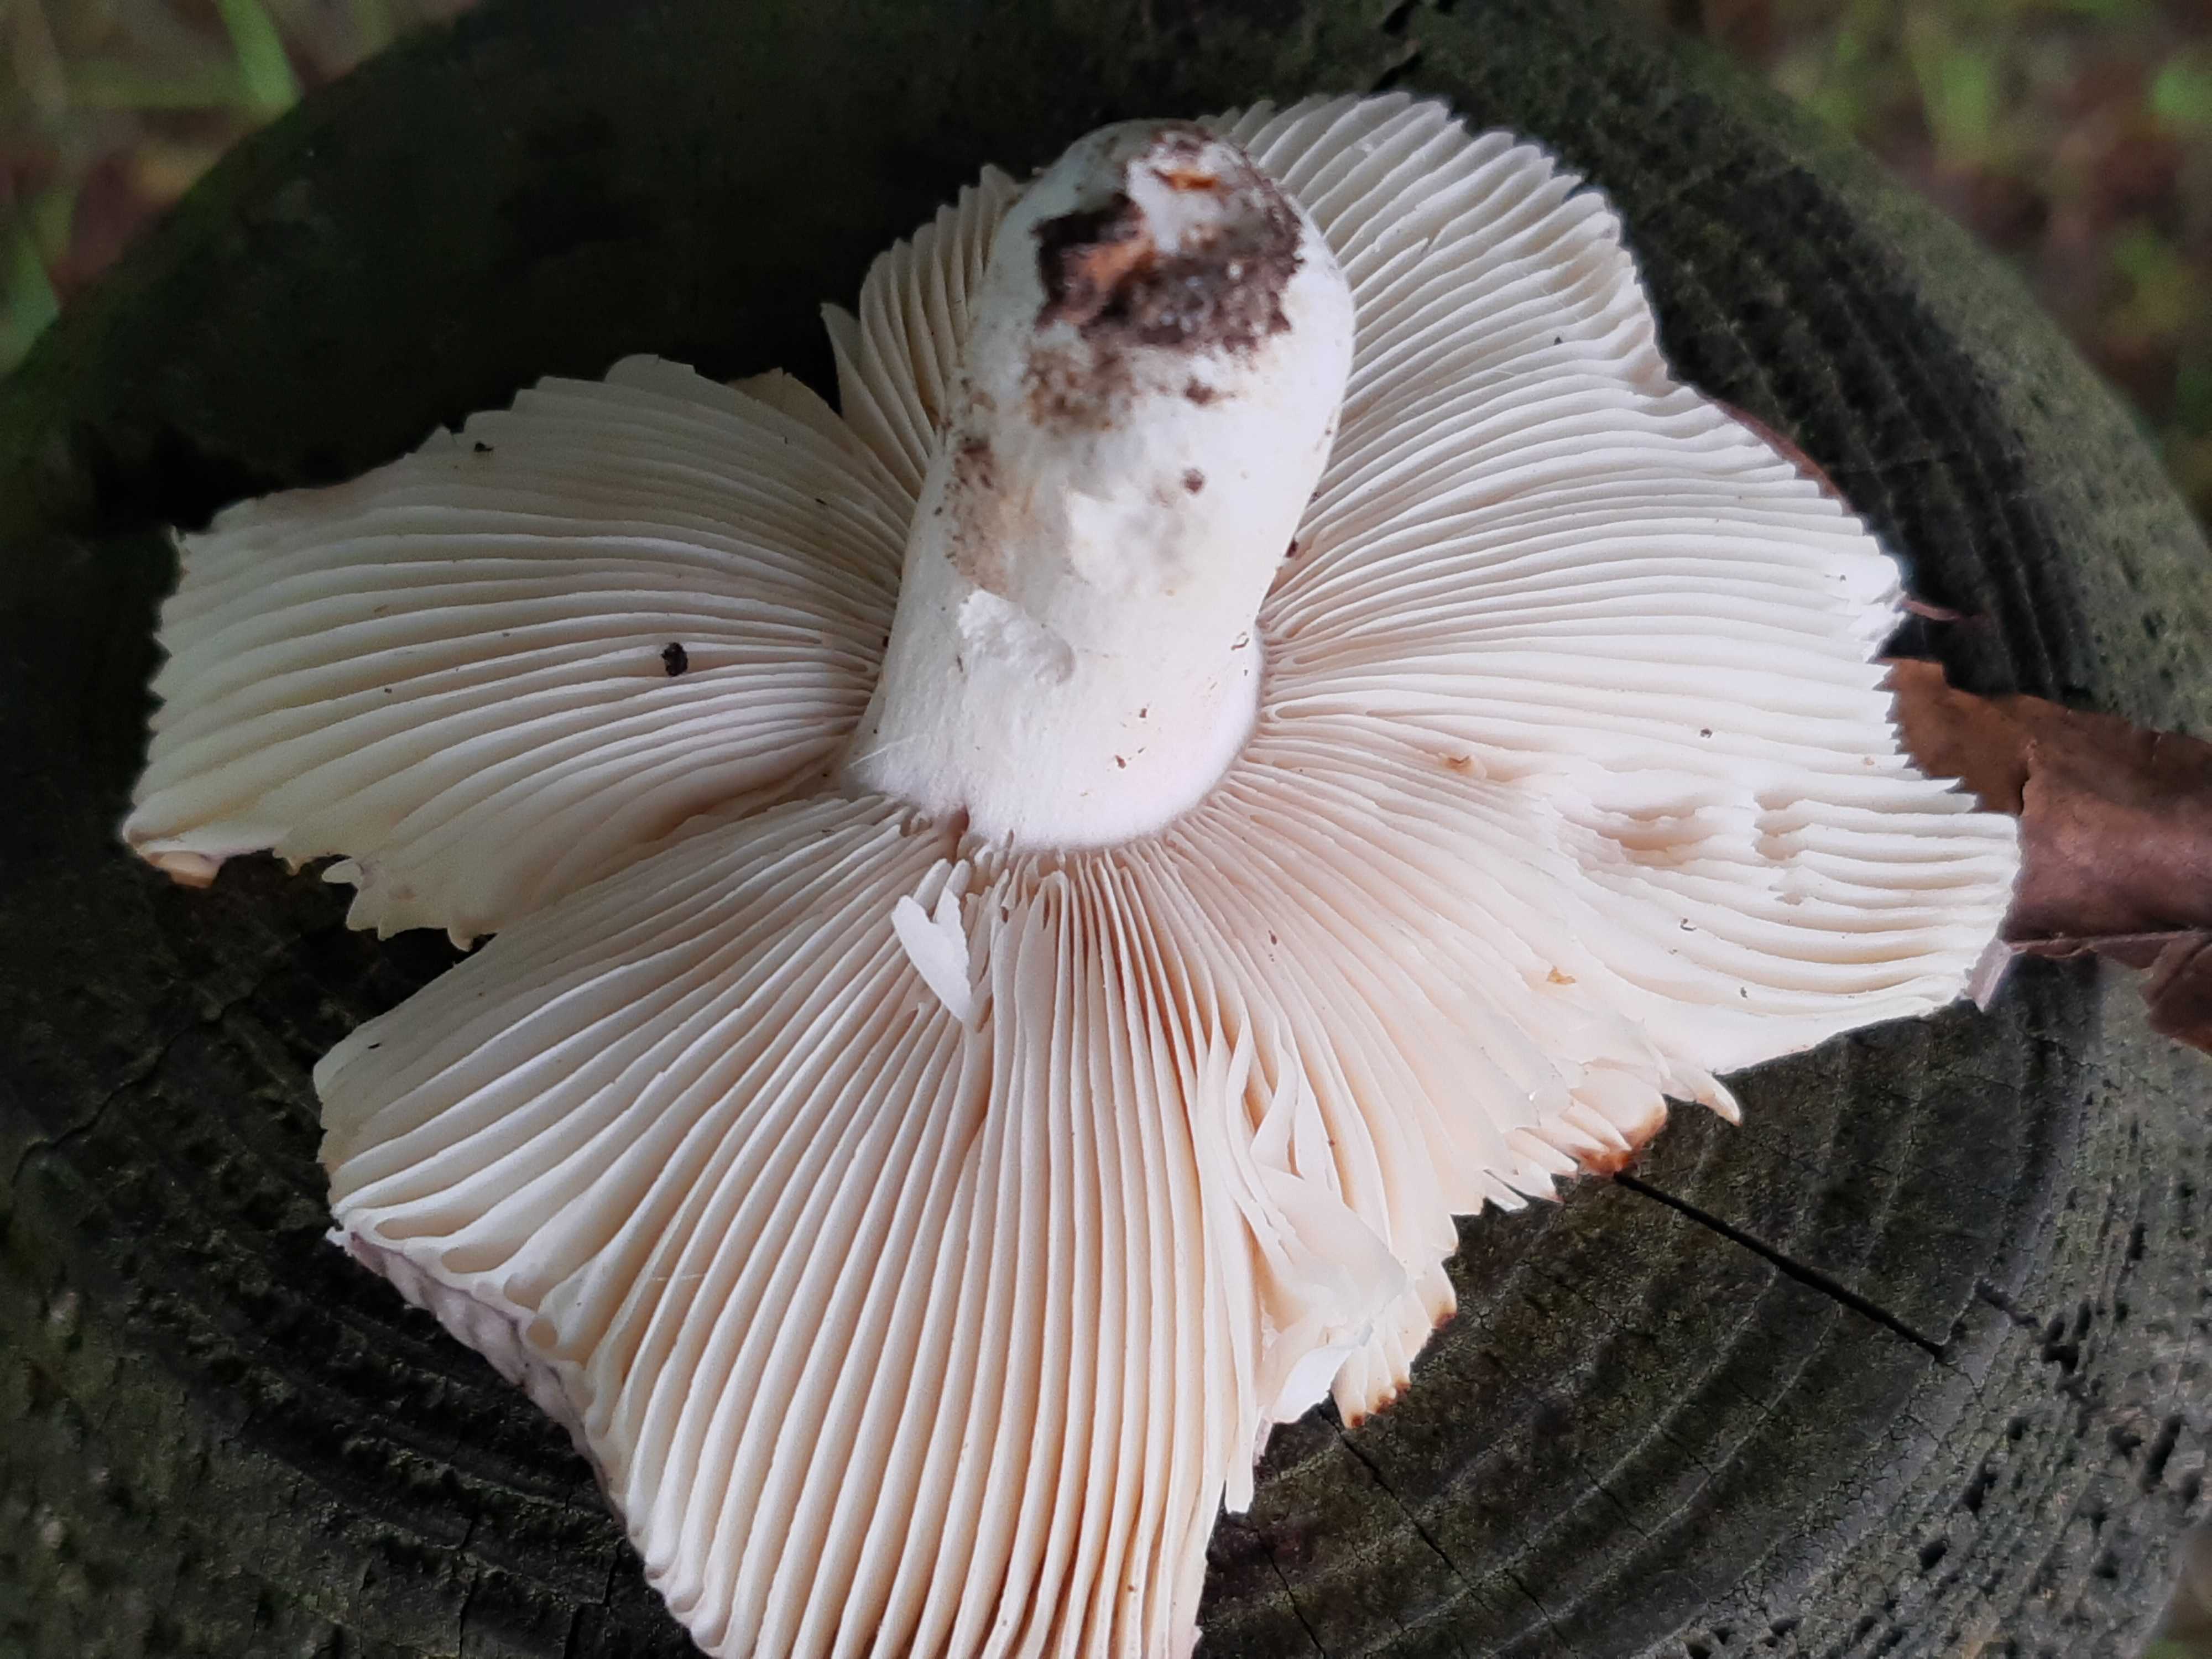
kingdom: Fungi
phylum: Basidiomycota
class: Agaricomycetes
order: Russulales
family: Russulaceae
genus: Russula
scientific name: Russula cyanoxantha
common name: broget skørhat
